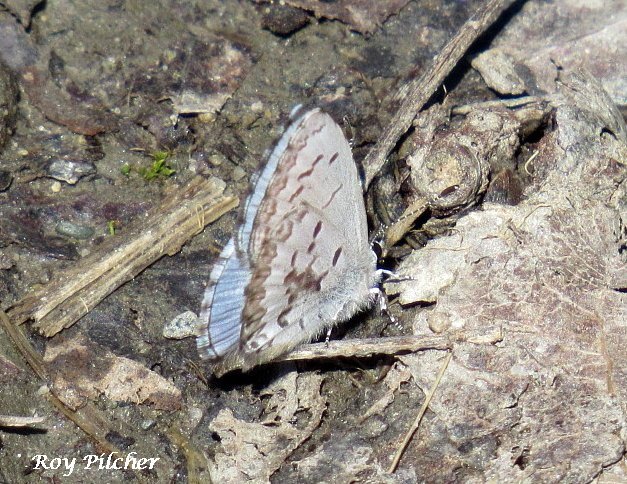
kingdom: Animalia
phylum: Arthropoda
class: Insecta
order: Lepidoptera
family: Lycaenidae
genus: Celastrina
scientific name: Celastrina lucia
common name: Northern Spring Azure
